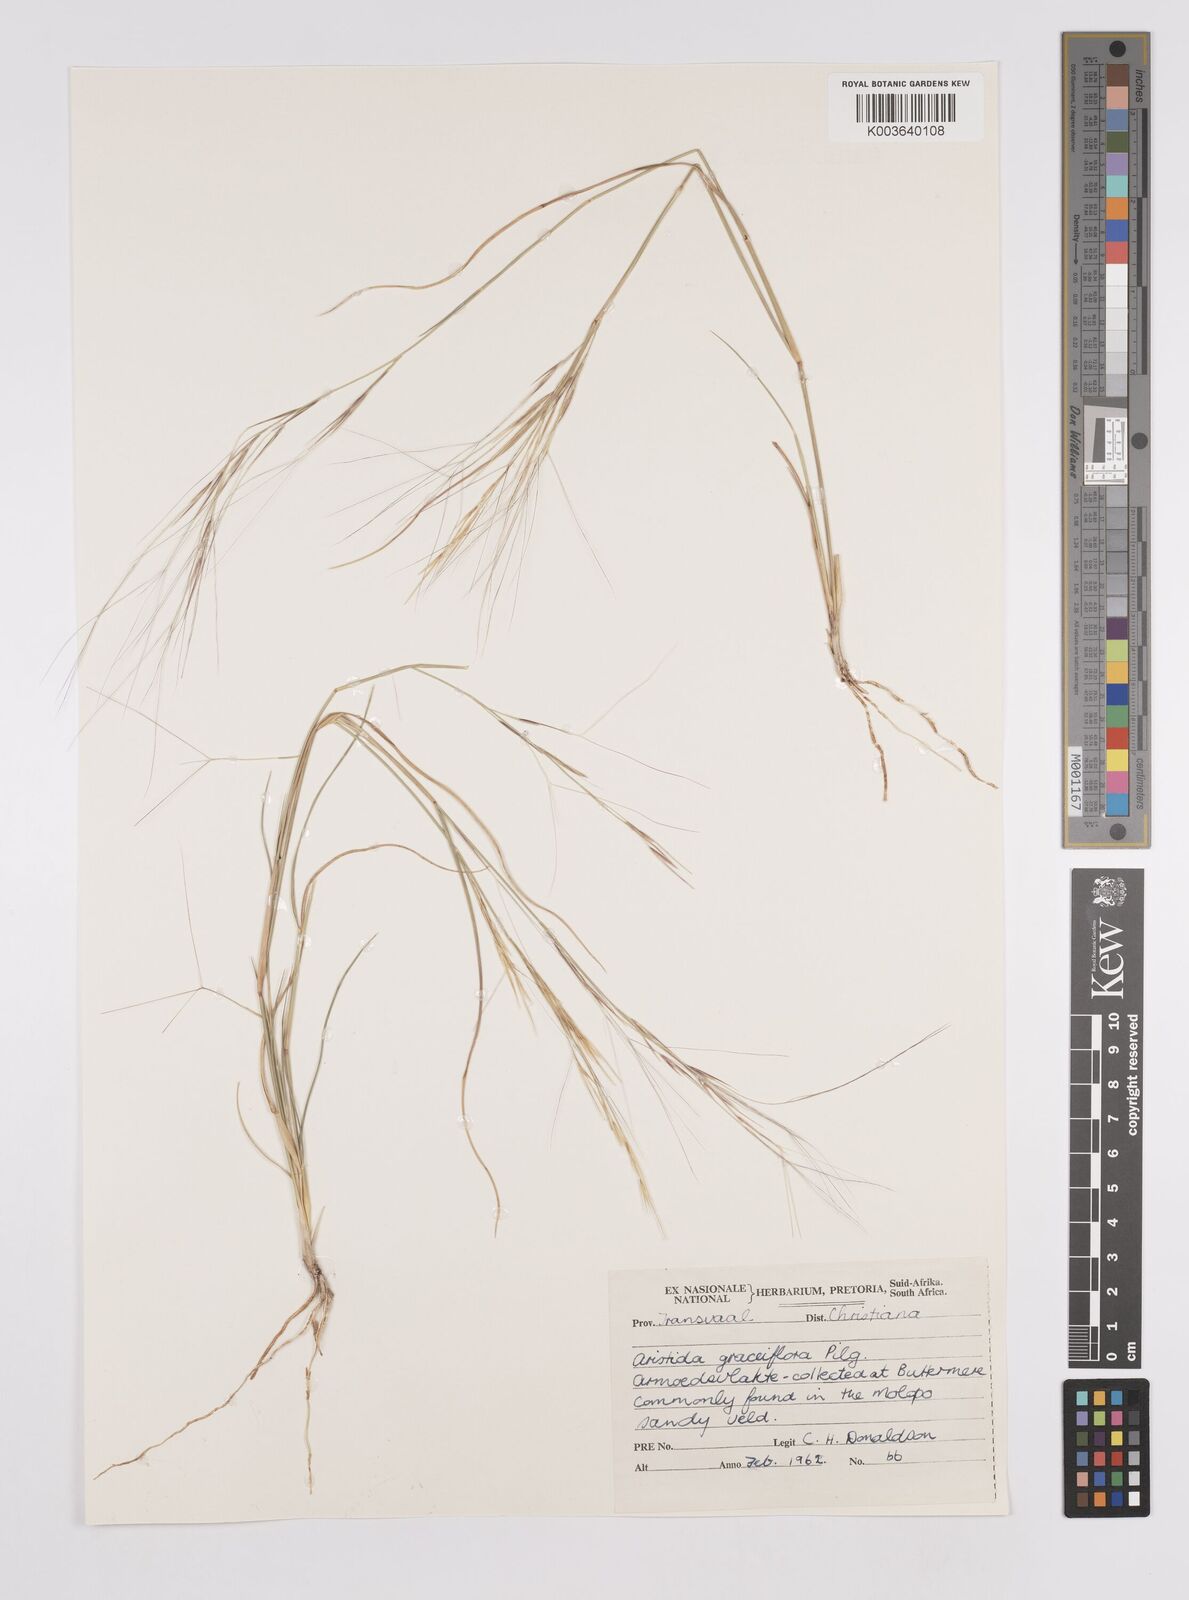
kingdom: Plantae
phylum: Tracheophyta
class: Liliopsida
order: Poales
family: Poaceae
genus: Aristida
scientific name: Aristida stipitata
